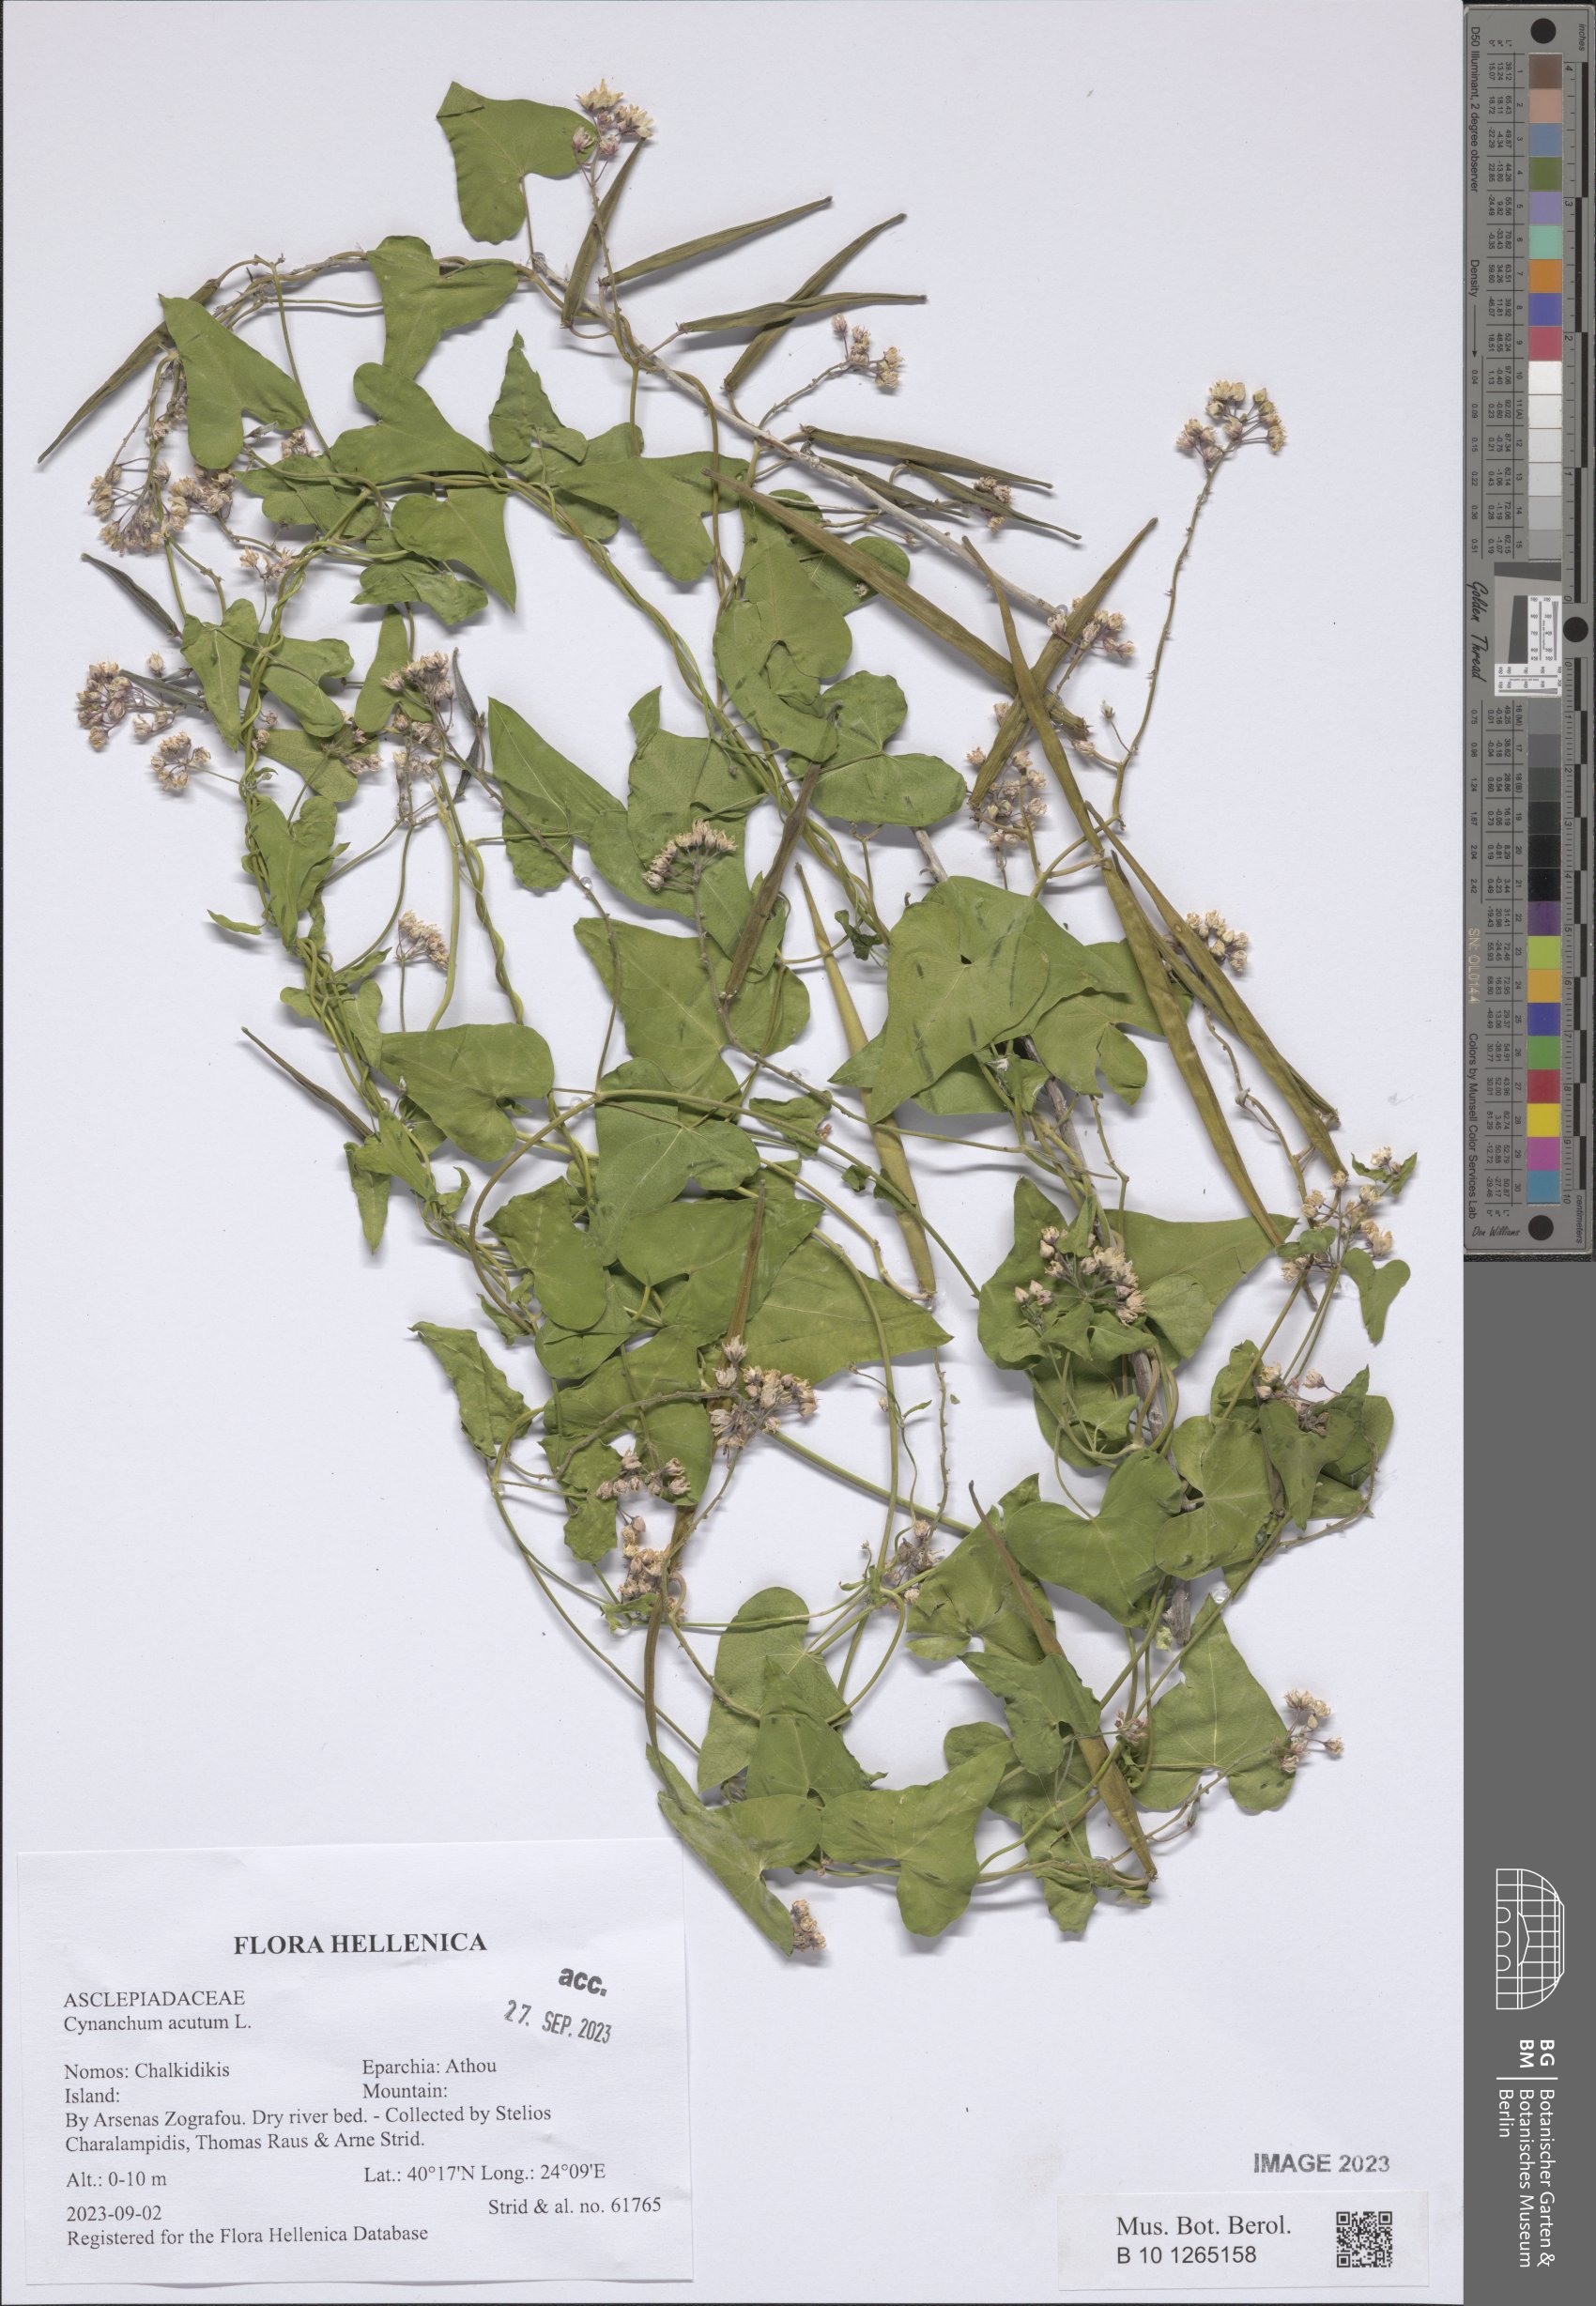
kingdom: Plantae
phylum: Tracheophyta
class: Magnoliopsida
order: Gentianales
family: Apocynaceae
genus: Cynanchum
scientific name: Cynanchum acutum
